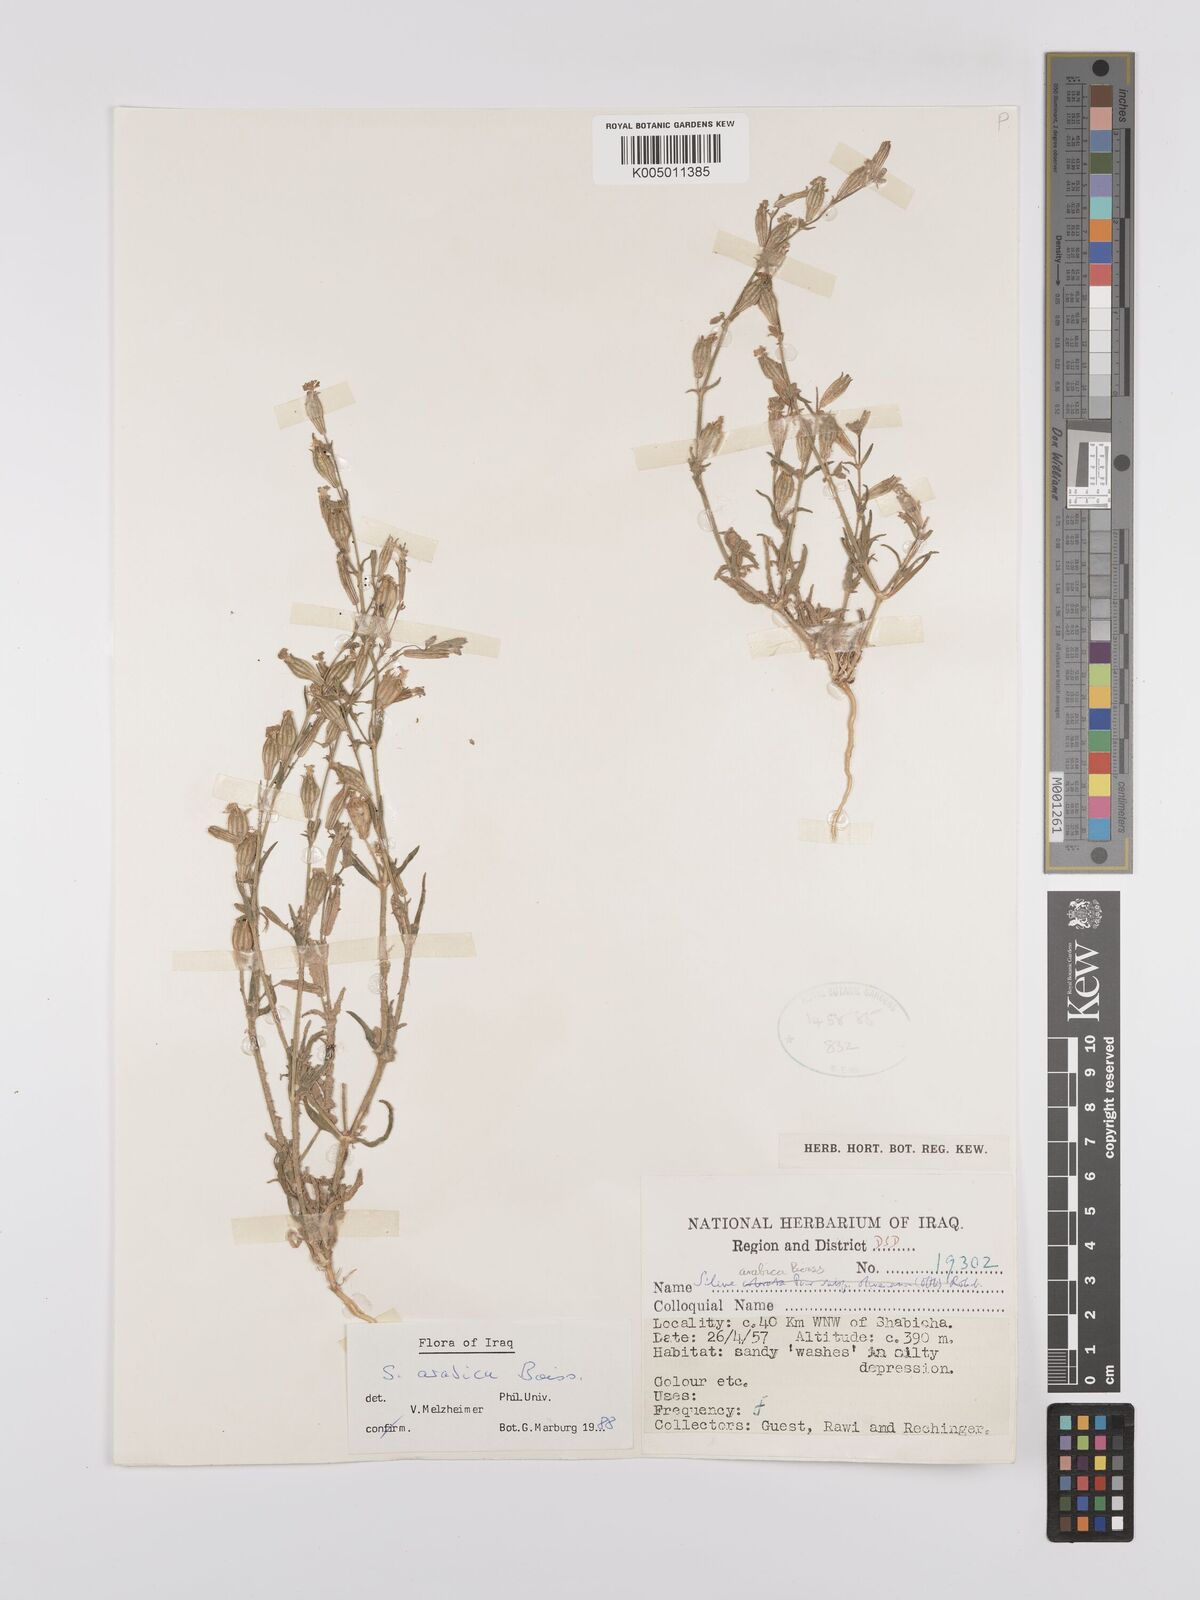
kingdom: Plantae
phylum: Tracheophyta
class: Magnoliopsida
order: Caryophyllales
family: Caryophyllaceae
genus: Silene
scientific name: Silene arabica
